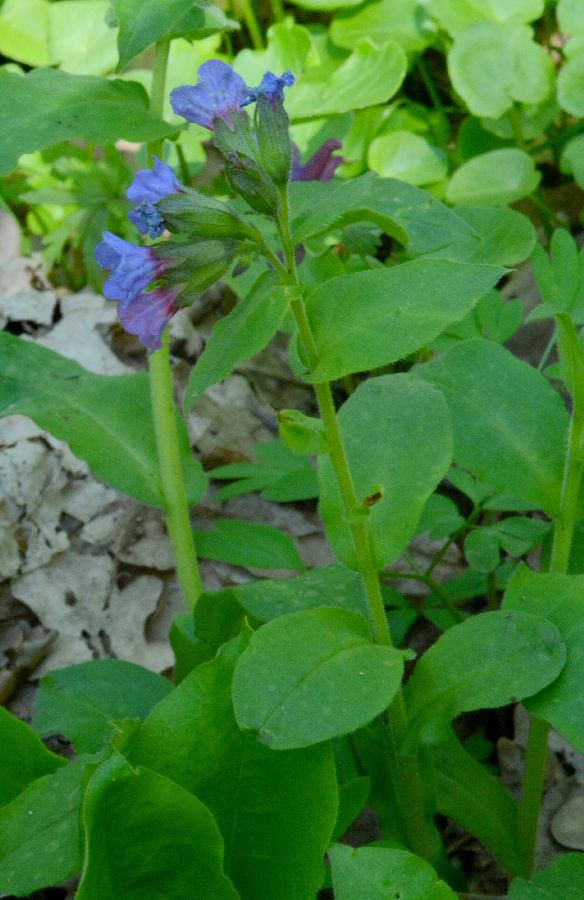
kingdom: Plantae
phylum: Tracheophyta
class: Magnoliopsida
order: Boraginales
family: Boraginaceae
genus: Pulmonaria
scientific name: Pulmonaria
